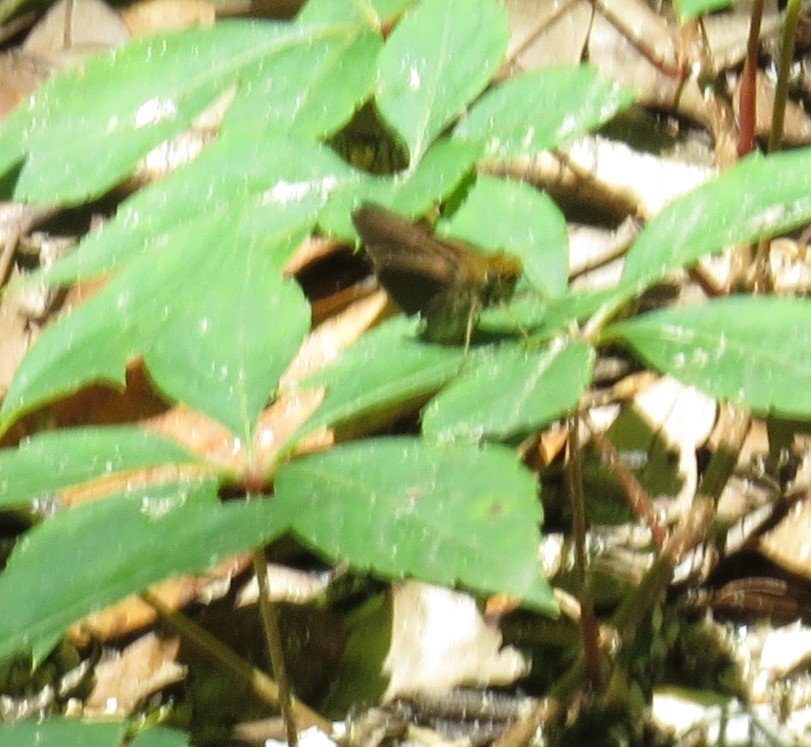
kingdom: Animalia
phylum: Arthropoda
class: Insecta
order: Lepidoptera
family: Hesperiidae
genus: Euphyes
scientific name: Euphyes vestris
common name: Dun Skipper
